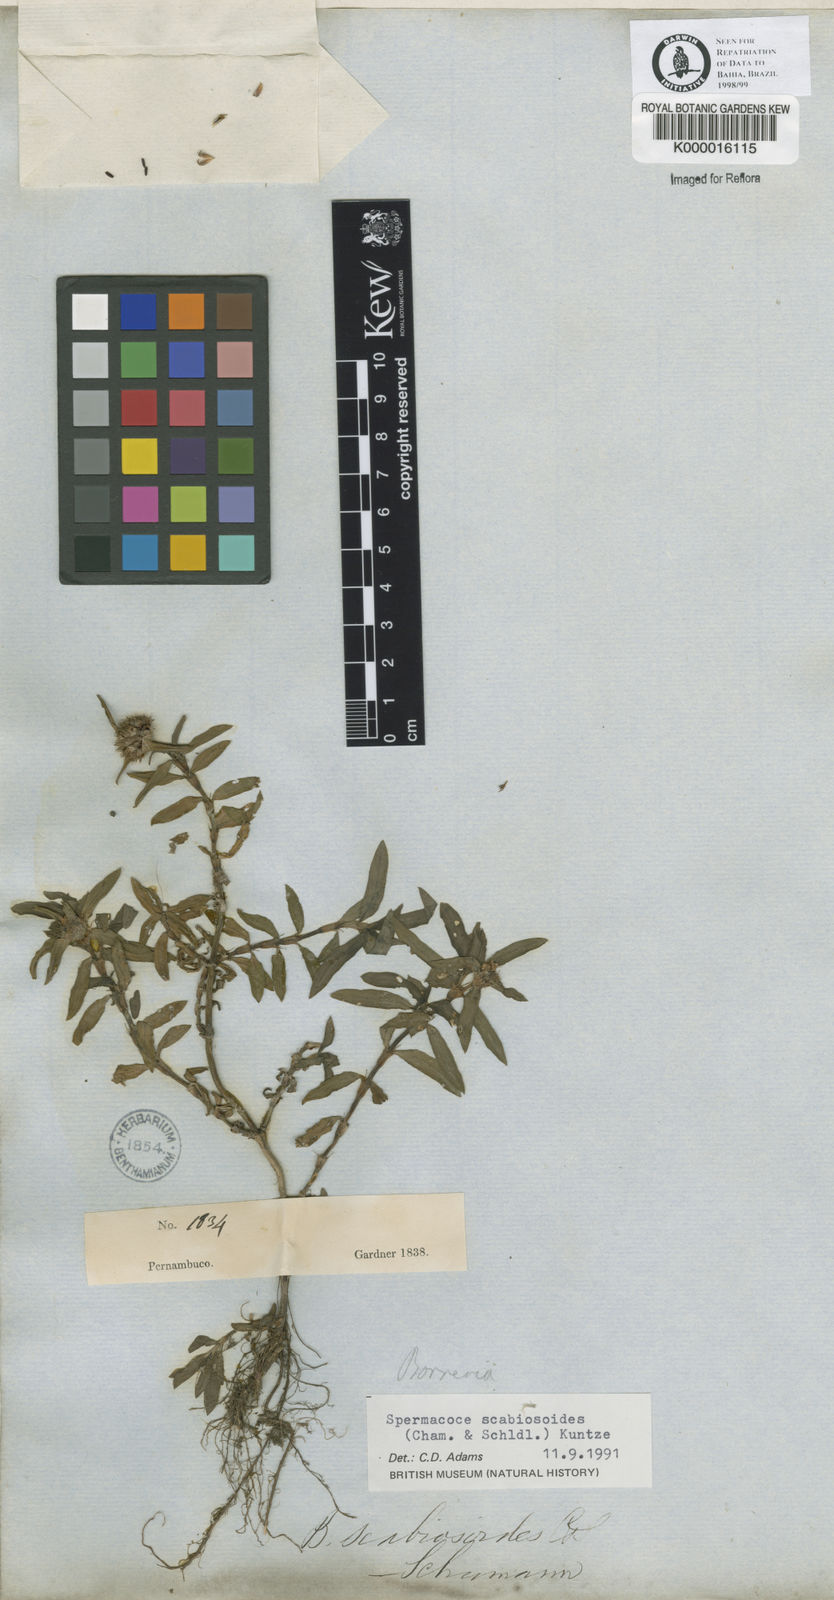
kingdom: Plantae
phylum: Tracheophyta
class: Magnoliopsida
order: Gentianales
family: Rubiaceae
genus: Spermacoce
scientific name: Spermacoce scabiosoides
